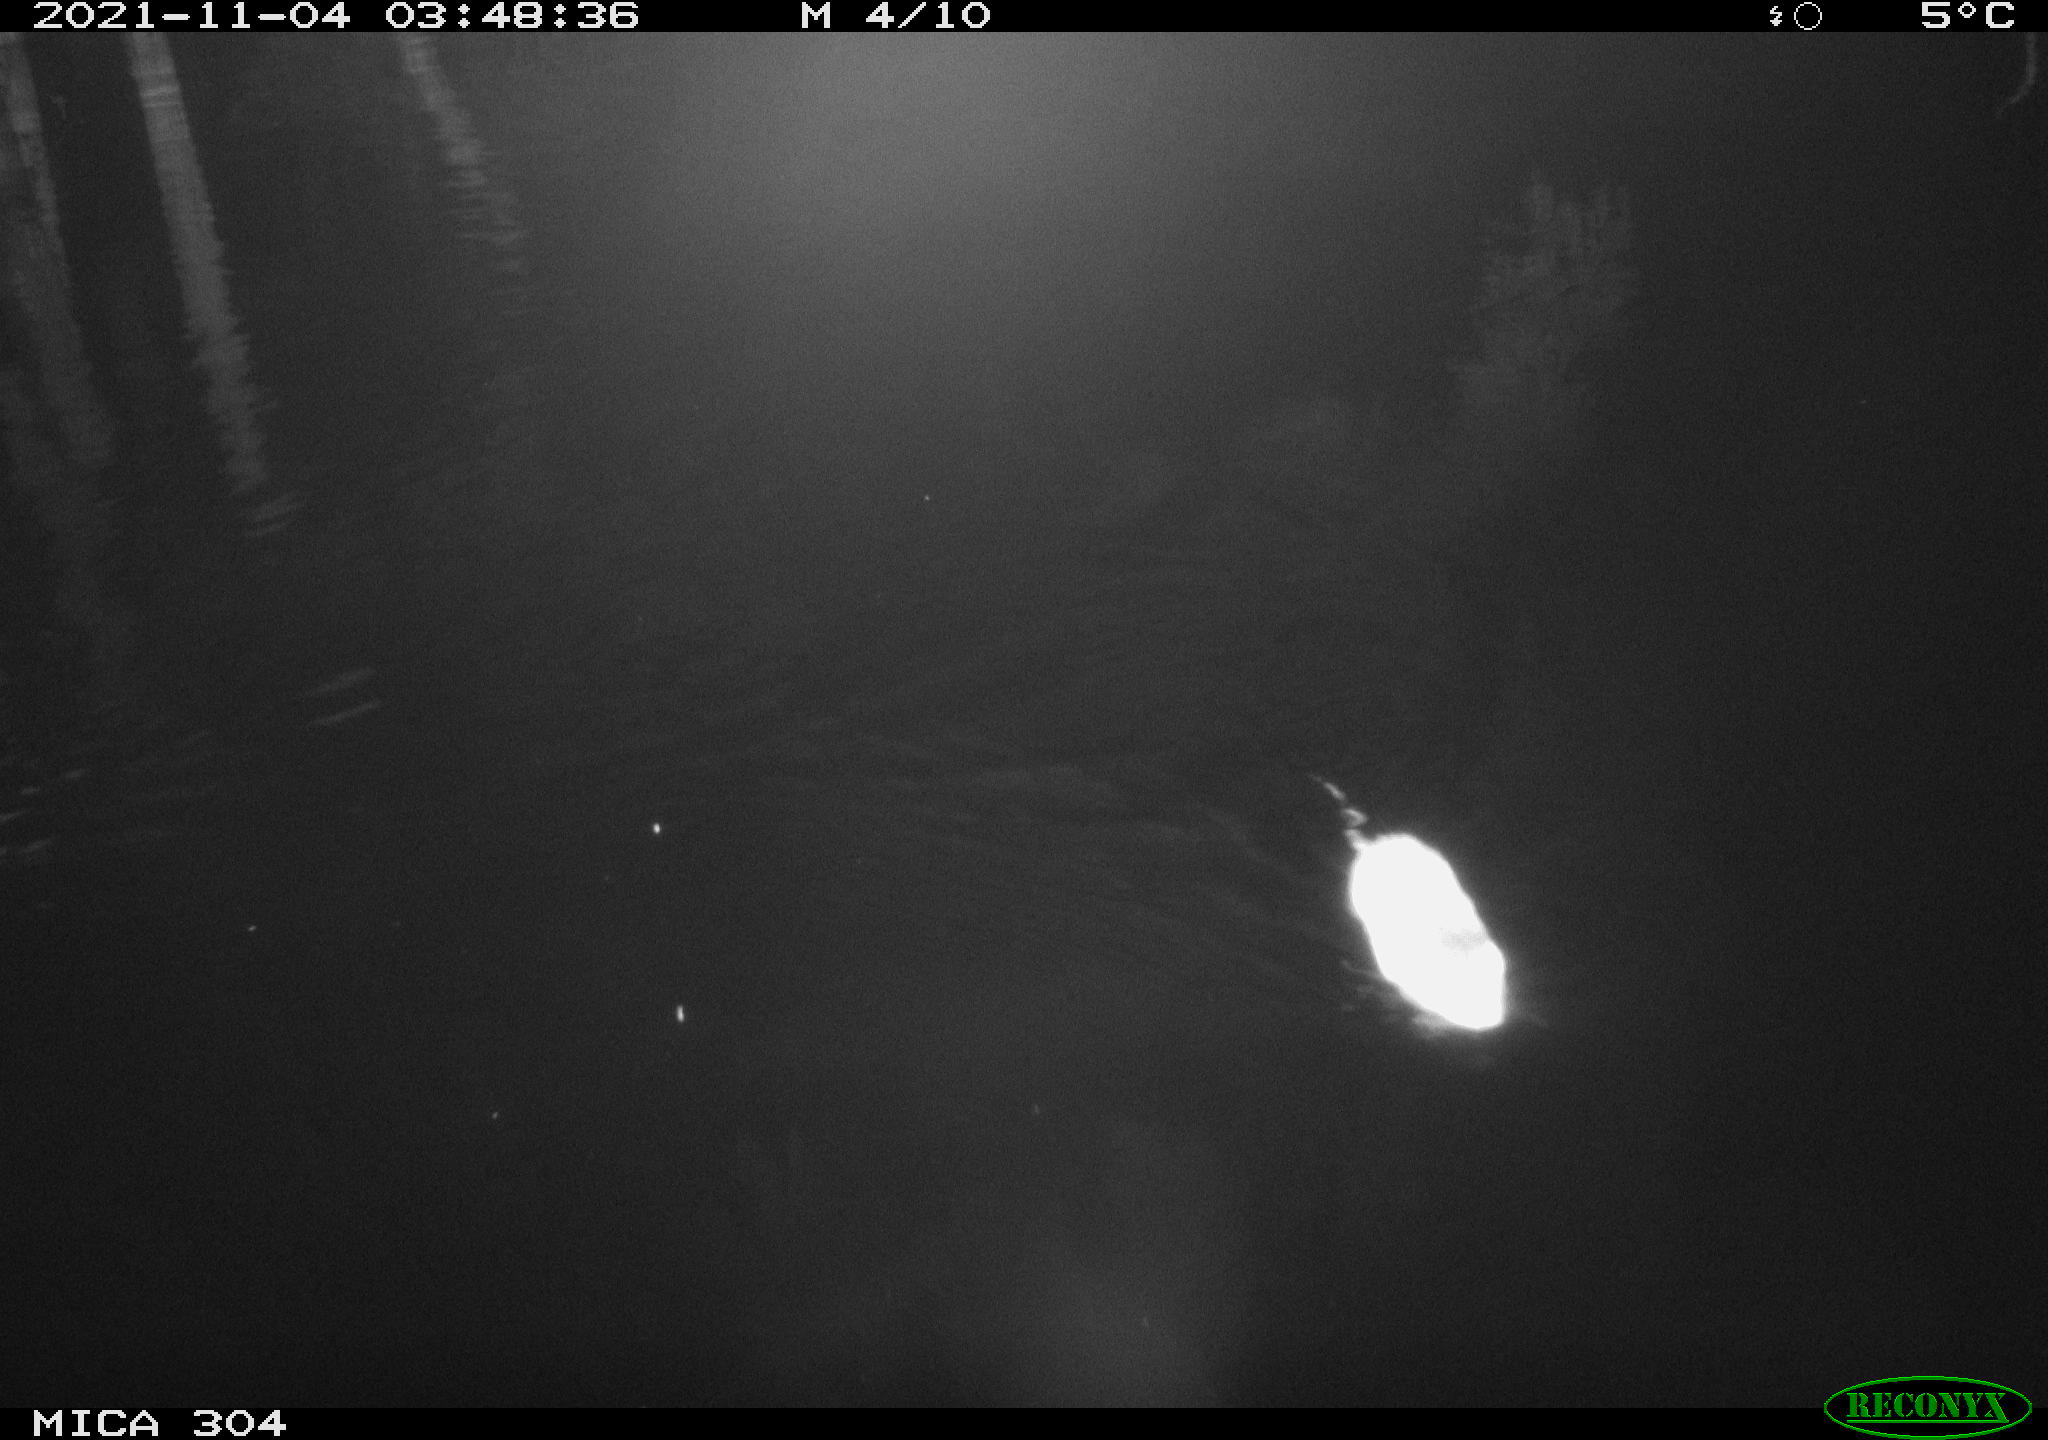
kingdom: Animalia
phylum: Chordata
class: Mammalia
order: Rodentia
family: Muridae
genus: Rattus
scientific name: Rattus norvegicus
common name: Brown rat
